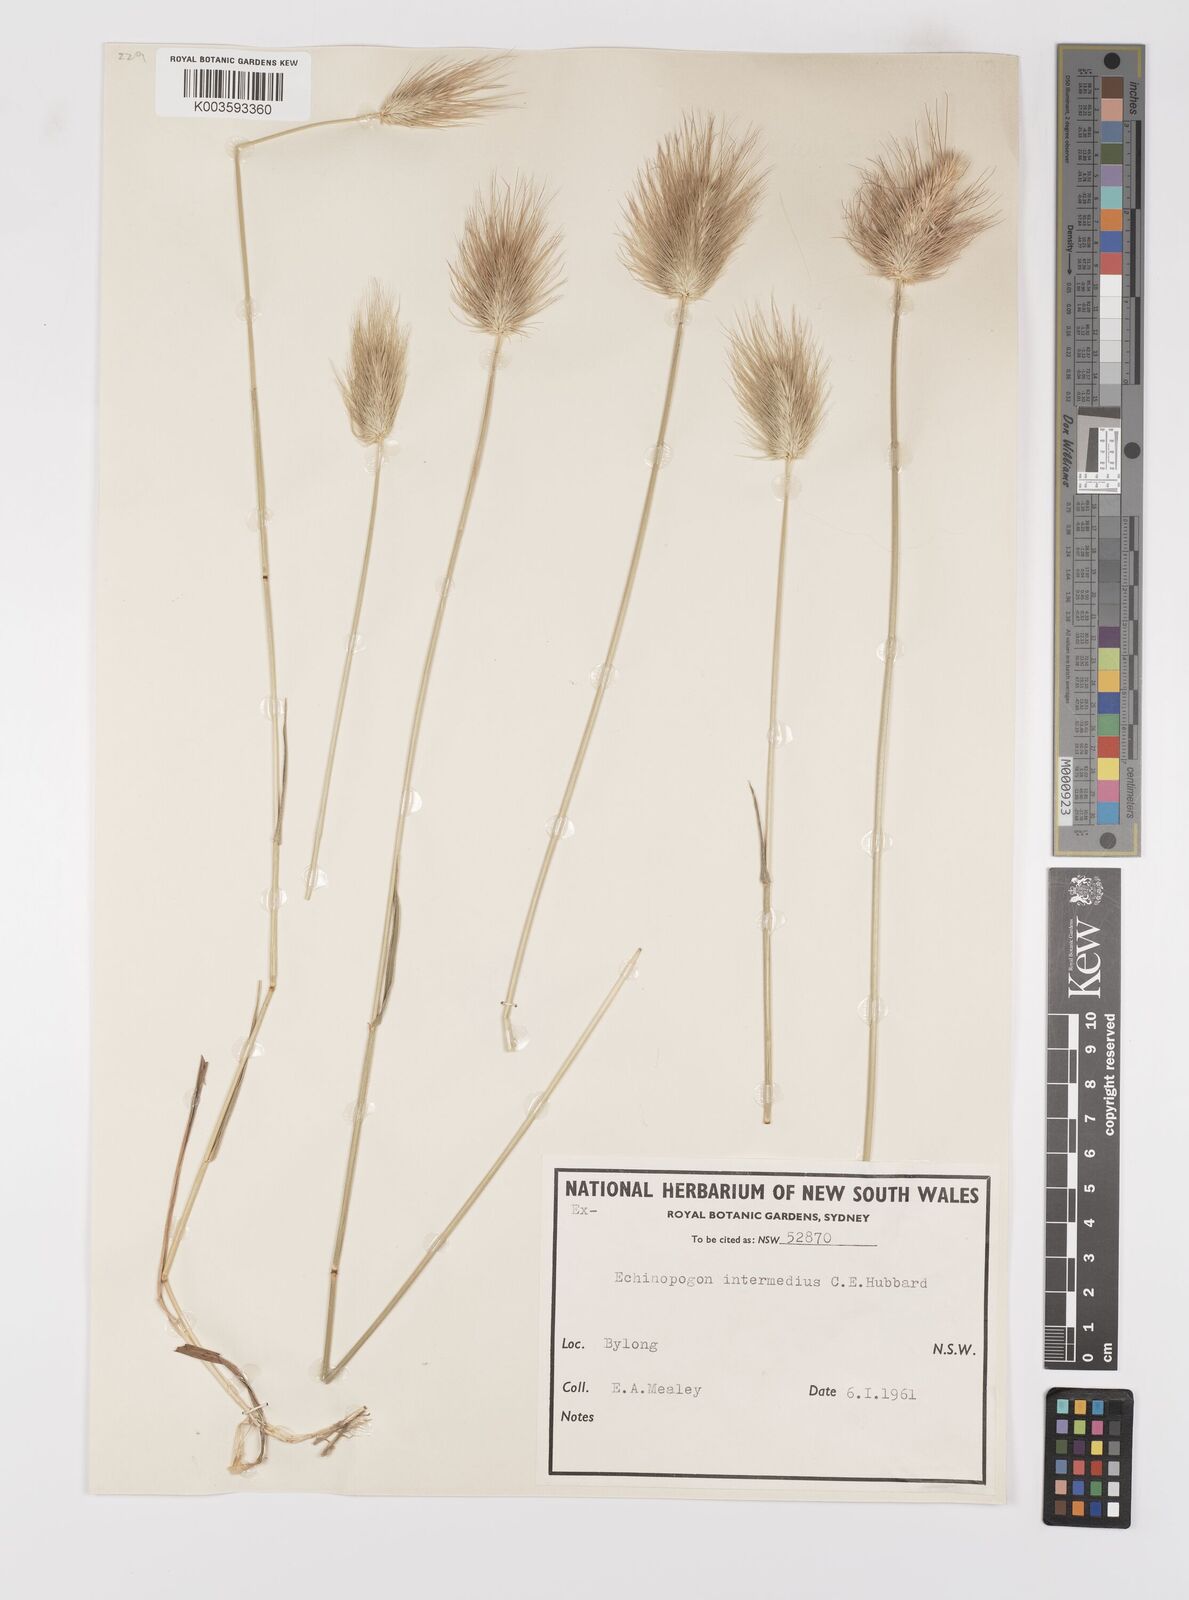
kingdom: Plantae
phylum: Tracheophyta
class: Liliopsida
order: Poales
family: Poaceae
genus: Echinopogon
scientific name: Echinopogon intermedius
